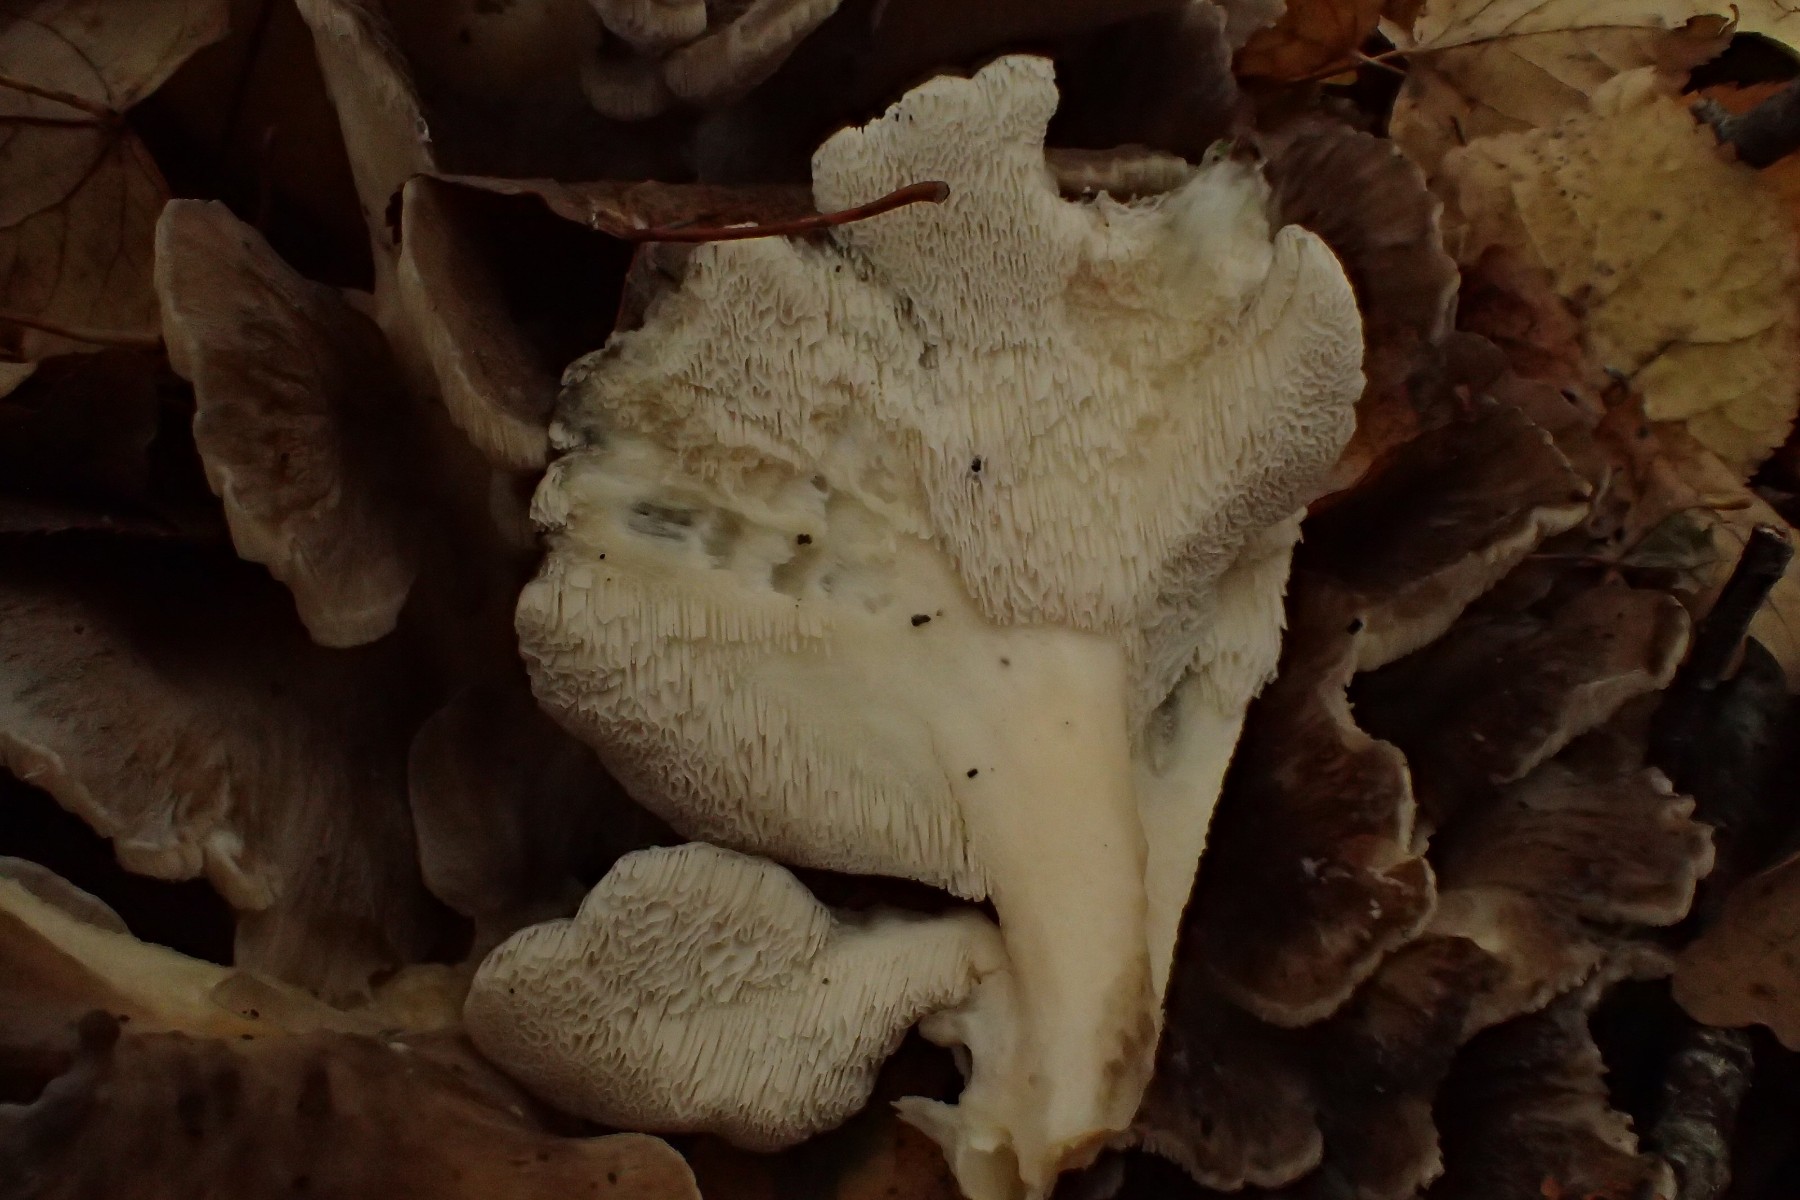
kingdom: Fungi
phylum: Basidiomycota
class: Agaricomycetes
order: Polyporales
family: Grifolaceae
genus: Grifola
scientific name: Grifola frondosa
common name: tueporesvamp
